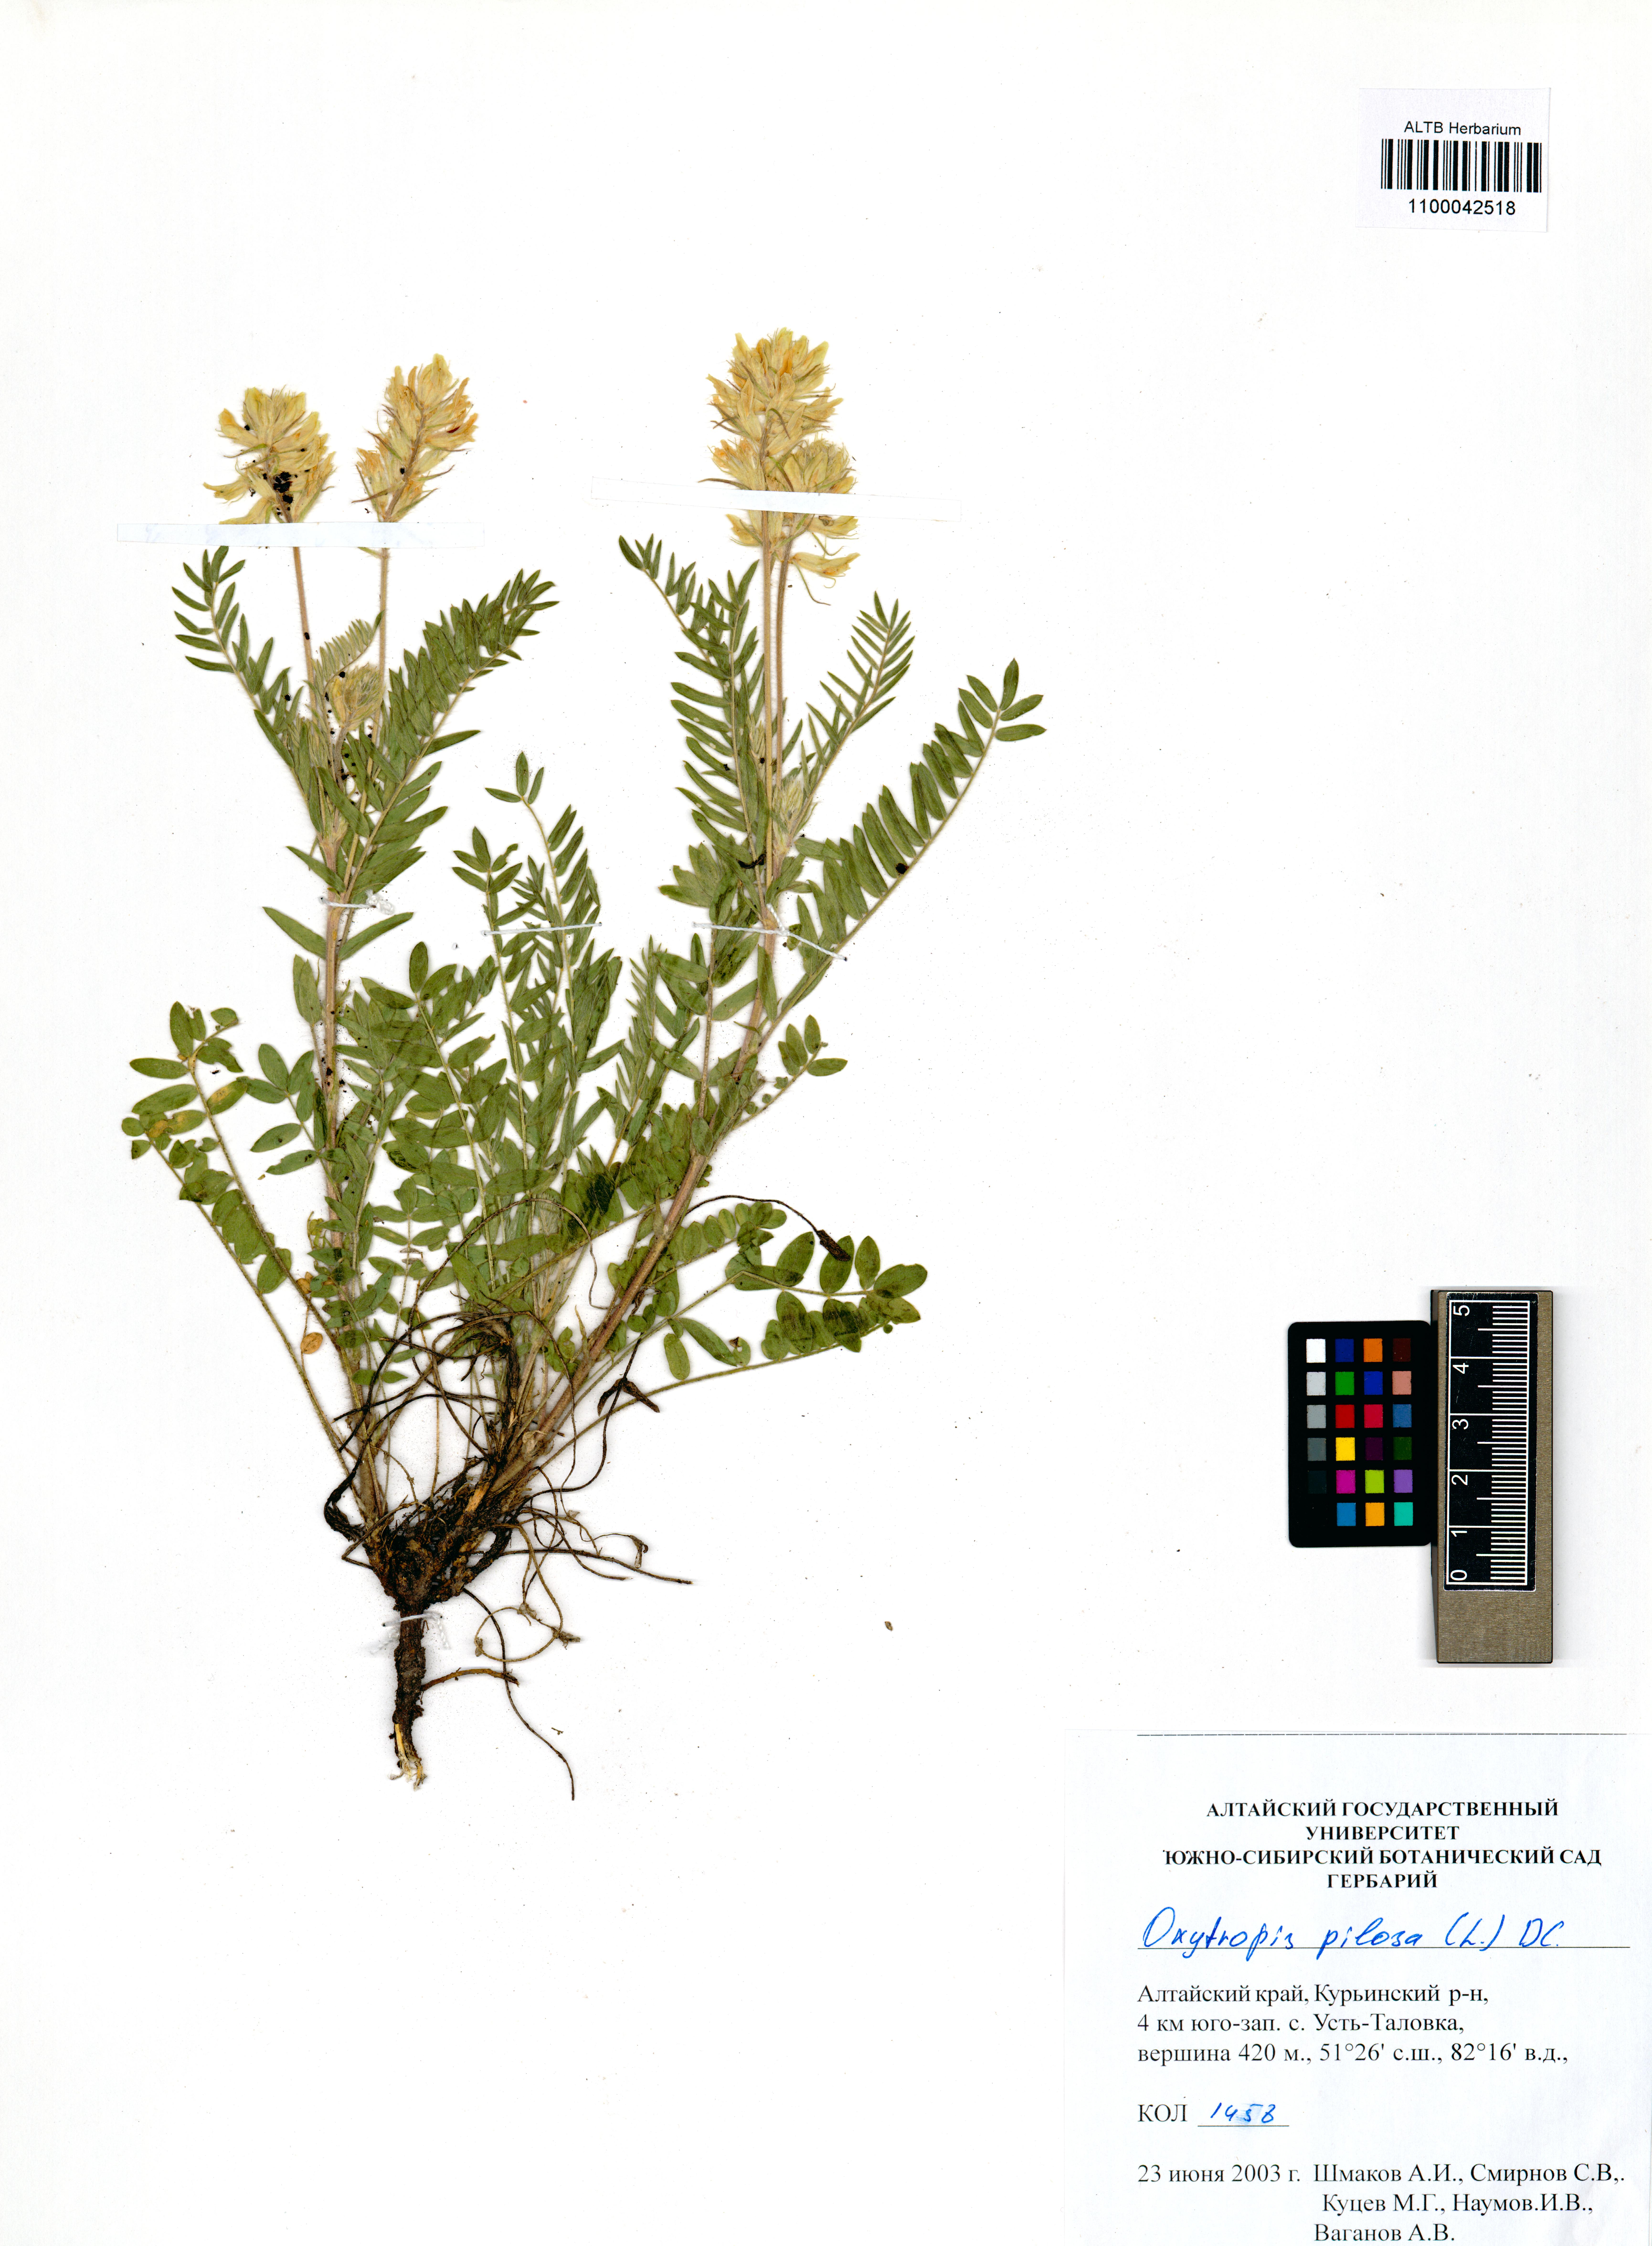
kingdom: Plantae
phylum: Tracheophyta
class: Magnoliopsida
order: Fabales
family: Fabaceae
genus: Oxytropis
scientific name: Oxytropis pilosa
